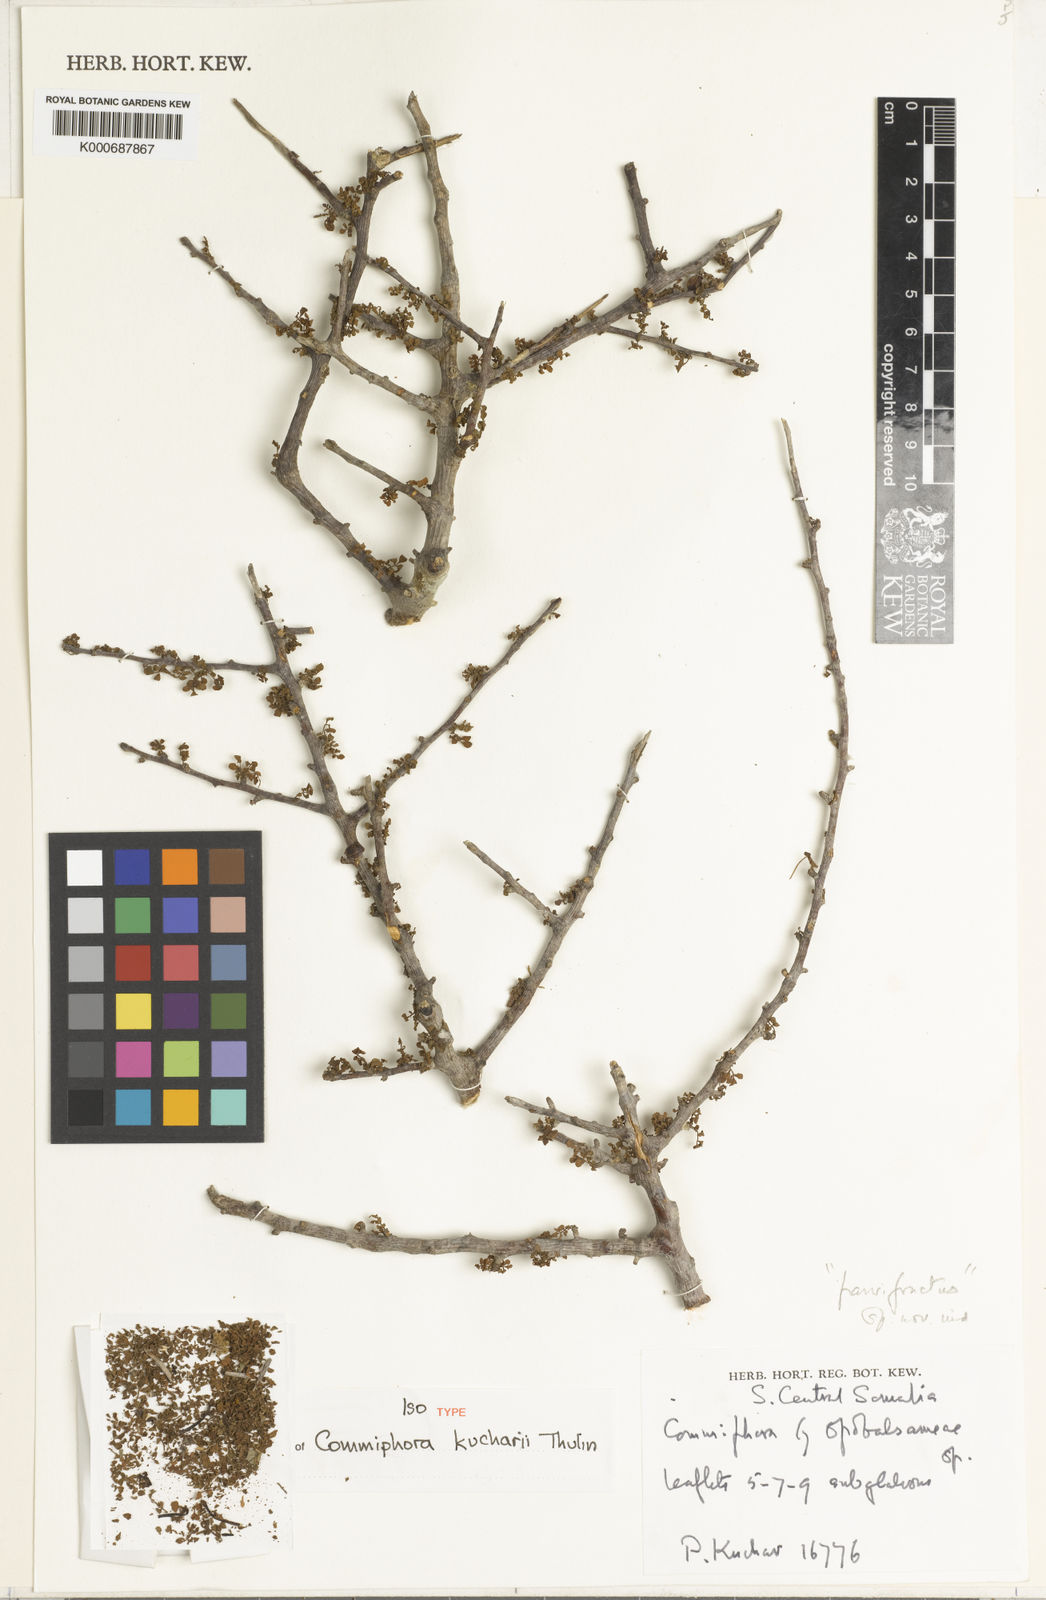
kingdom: Plantae
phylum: Tracheophyta
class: Magnoliopsida
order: Sapindales
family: Burseraceae
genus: Commiphora
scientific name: Commiphora kucharii
